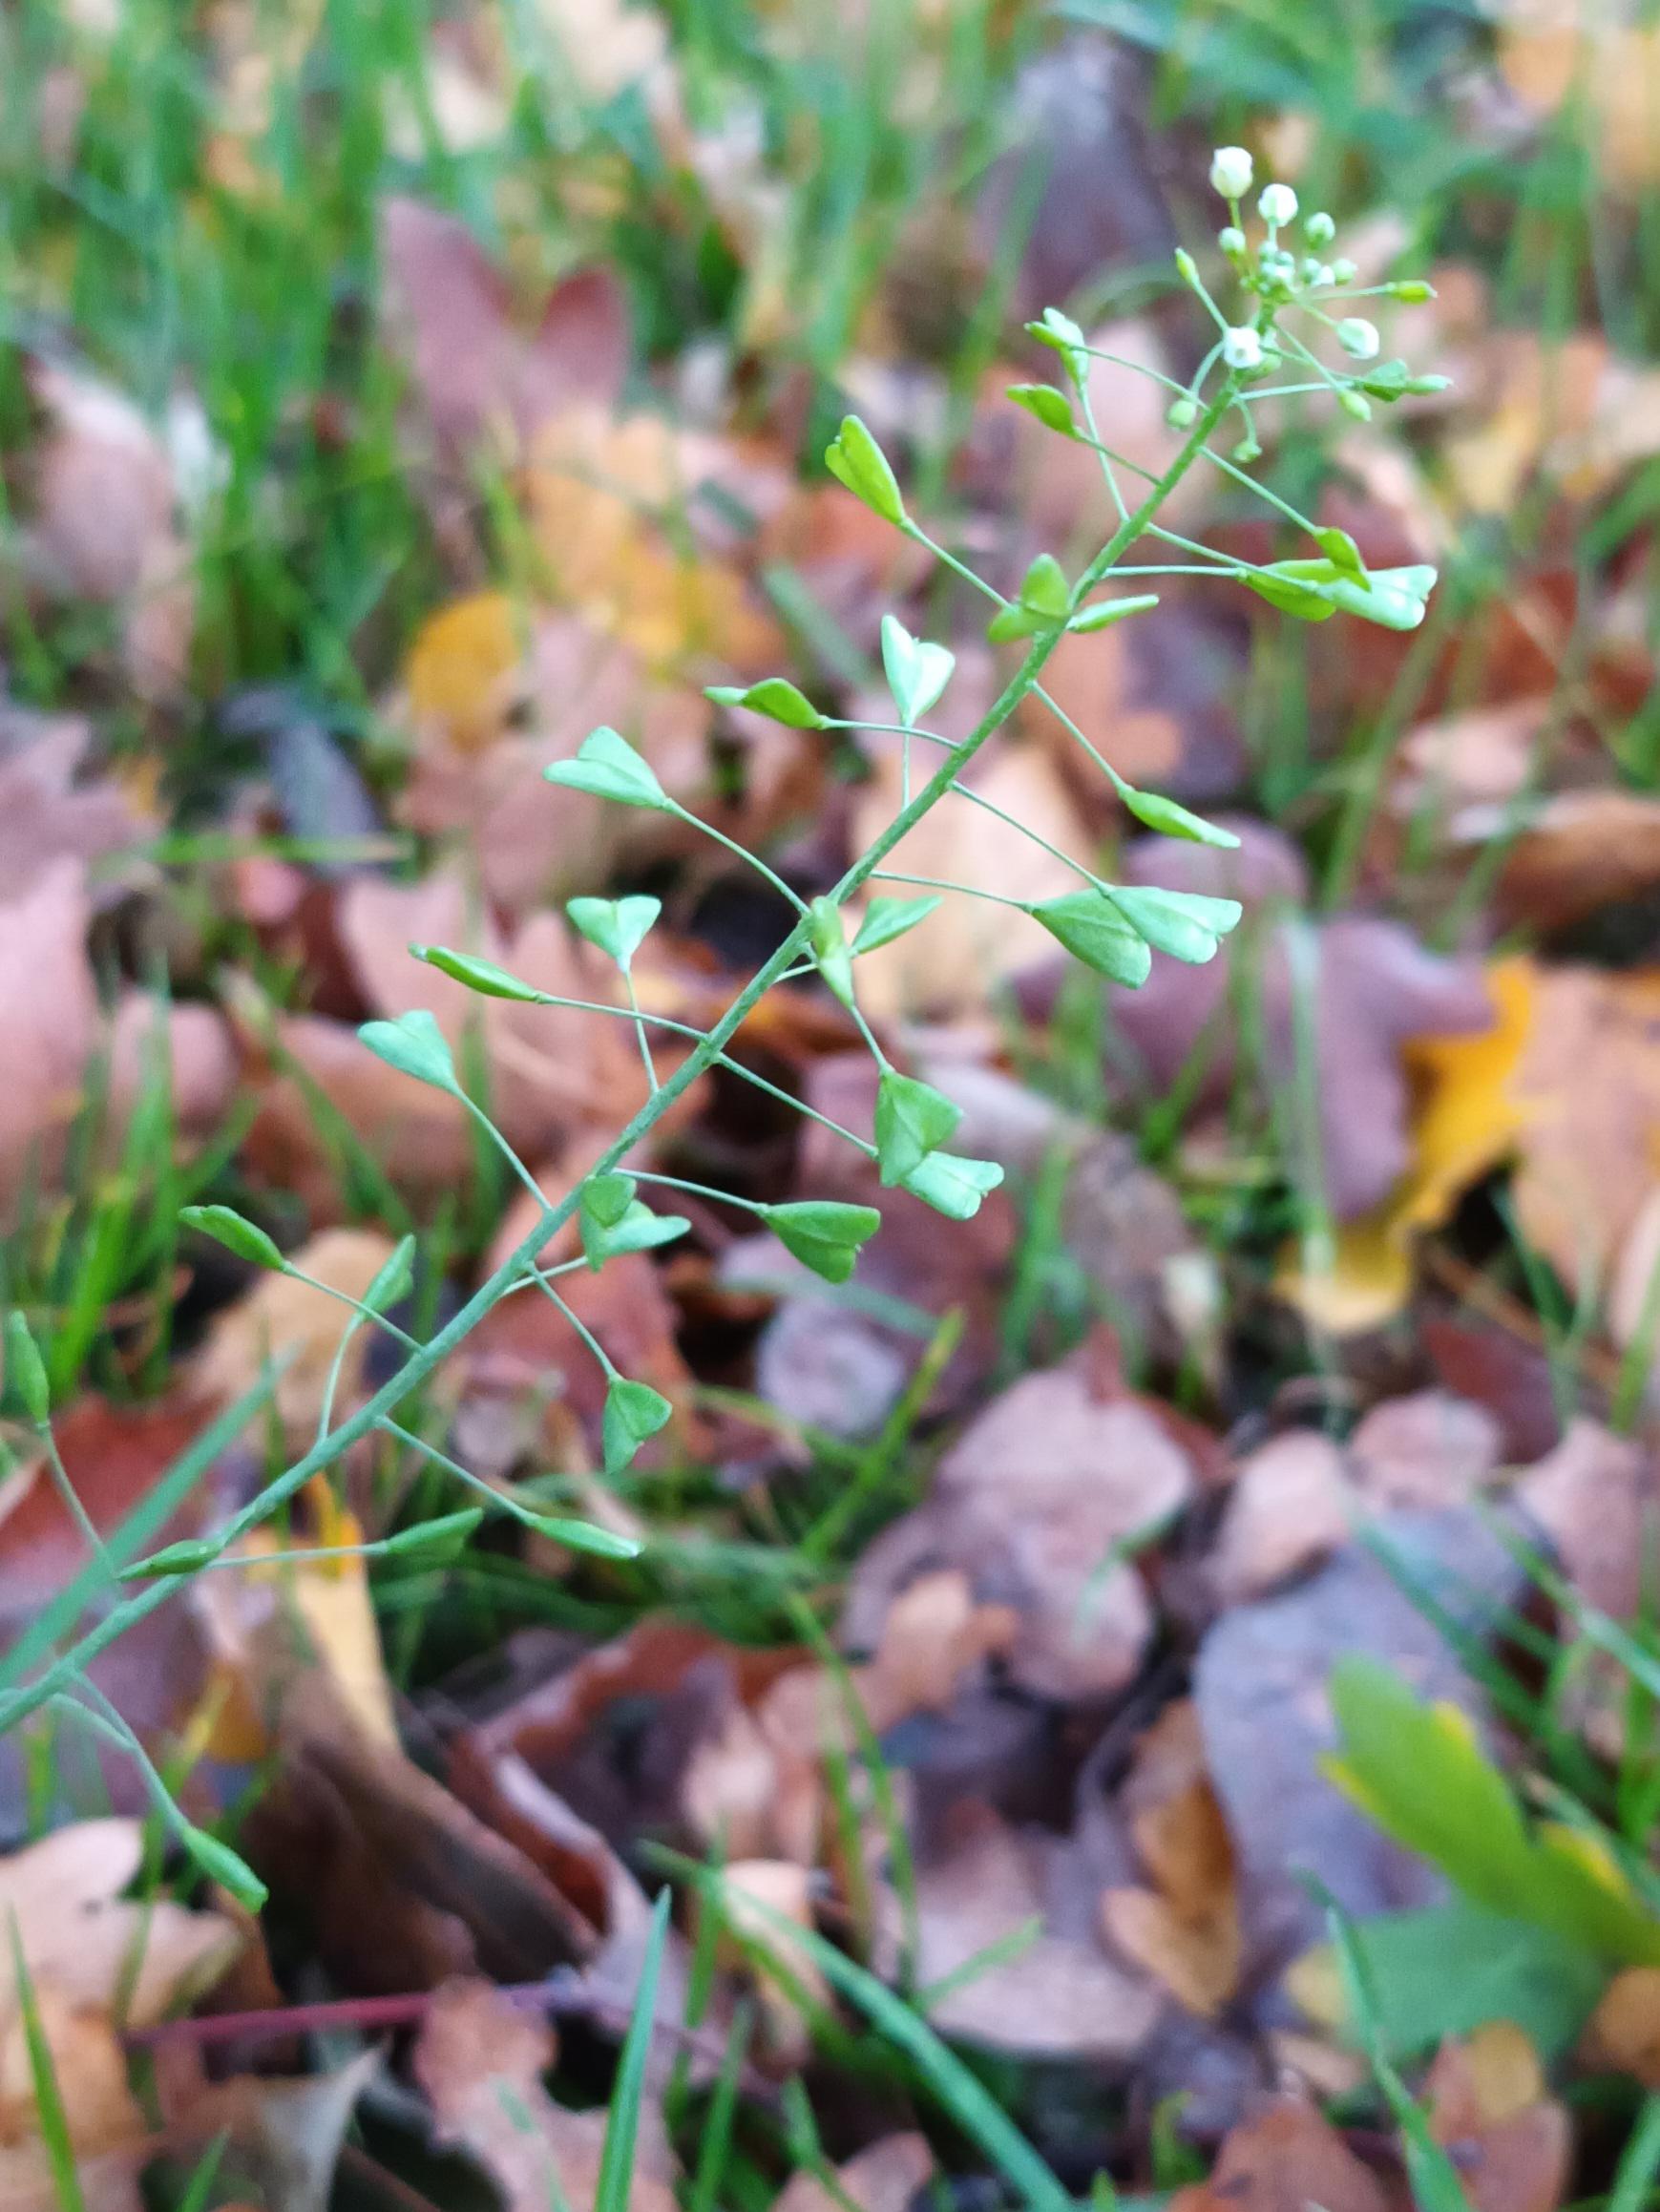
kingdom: Plantae
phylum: Tracheophyta
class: Magnoliopsida
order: Brassicales
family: Brassicaceae
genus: Capsella
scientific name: Capsella bursa-pastoris
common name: Hyrdetaske
